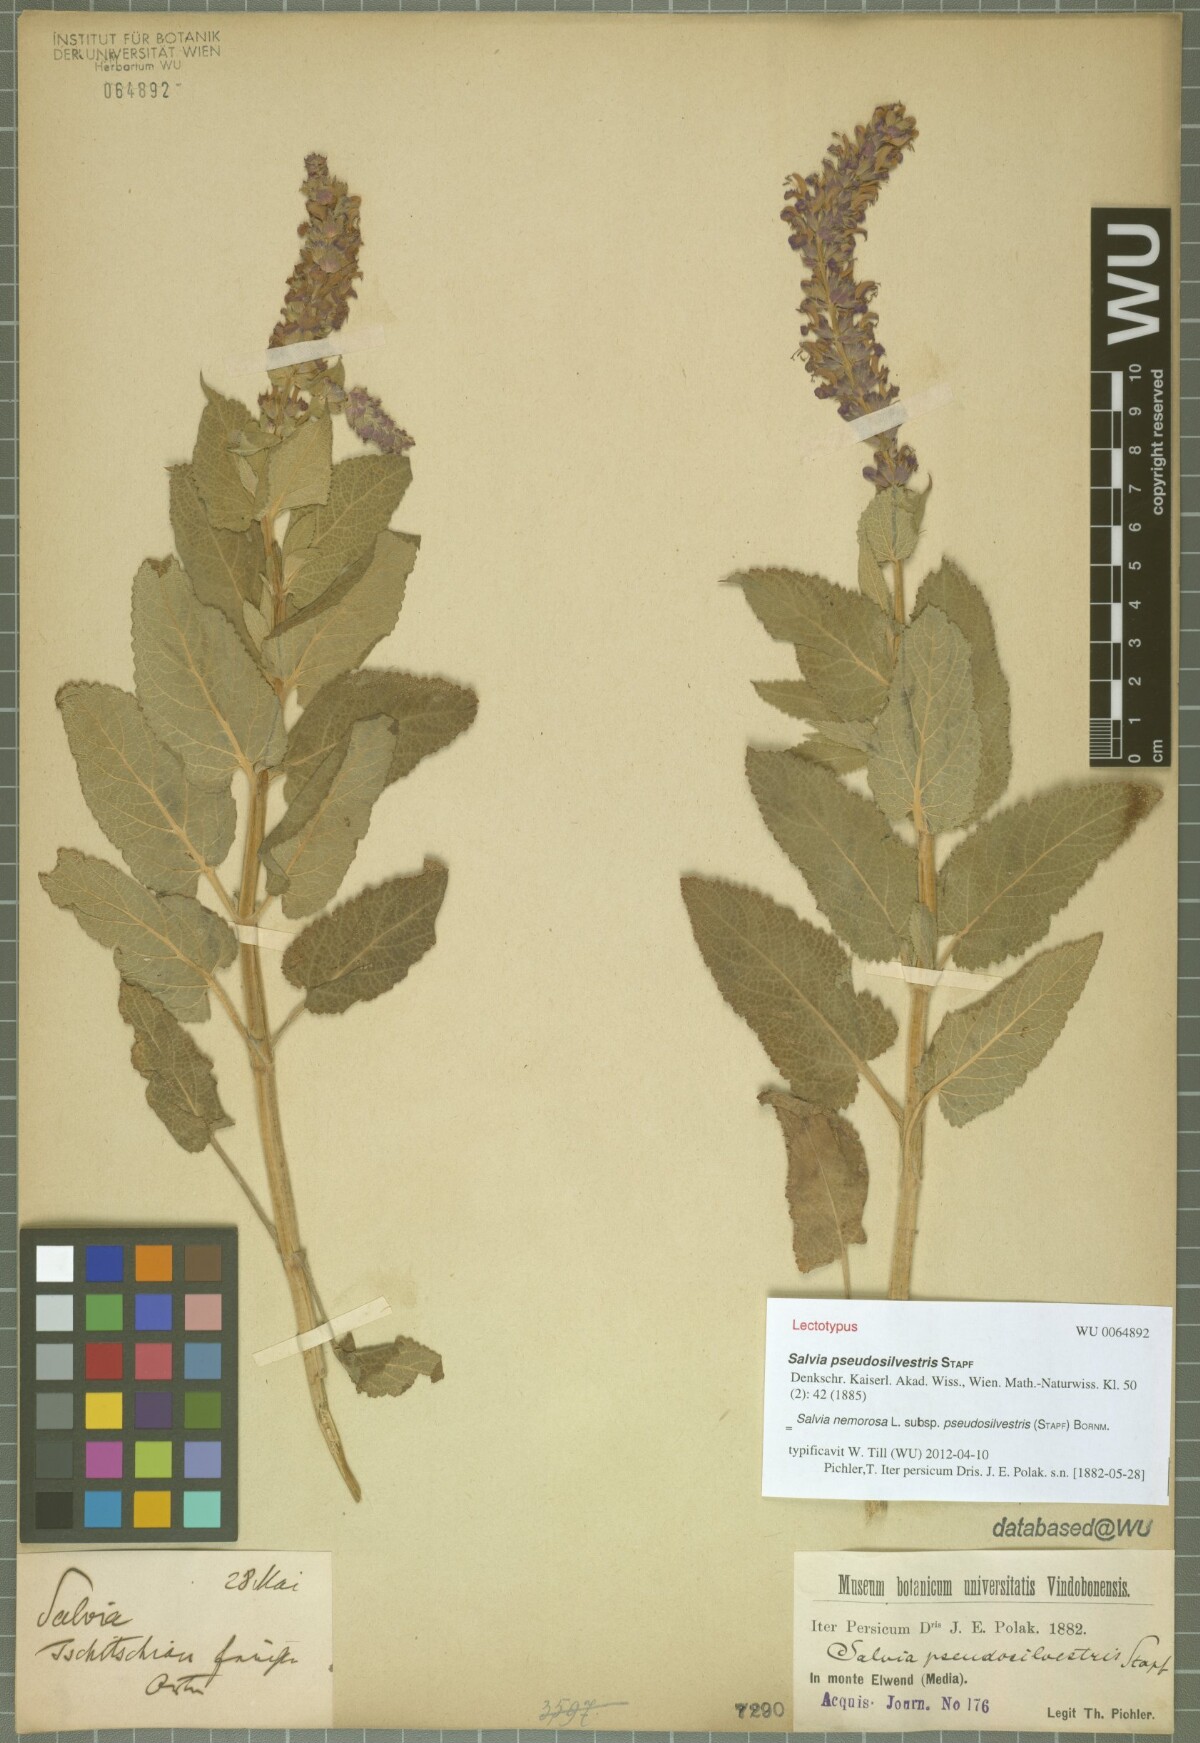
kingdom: Plantae
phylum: Tracheophyta
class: Magnoliopsida
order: Lamiales
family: Lamiaceae
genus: Salvia
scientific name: Salvia nemorosa
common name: Balkan clary
